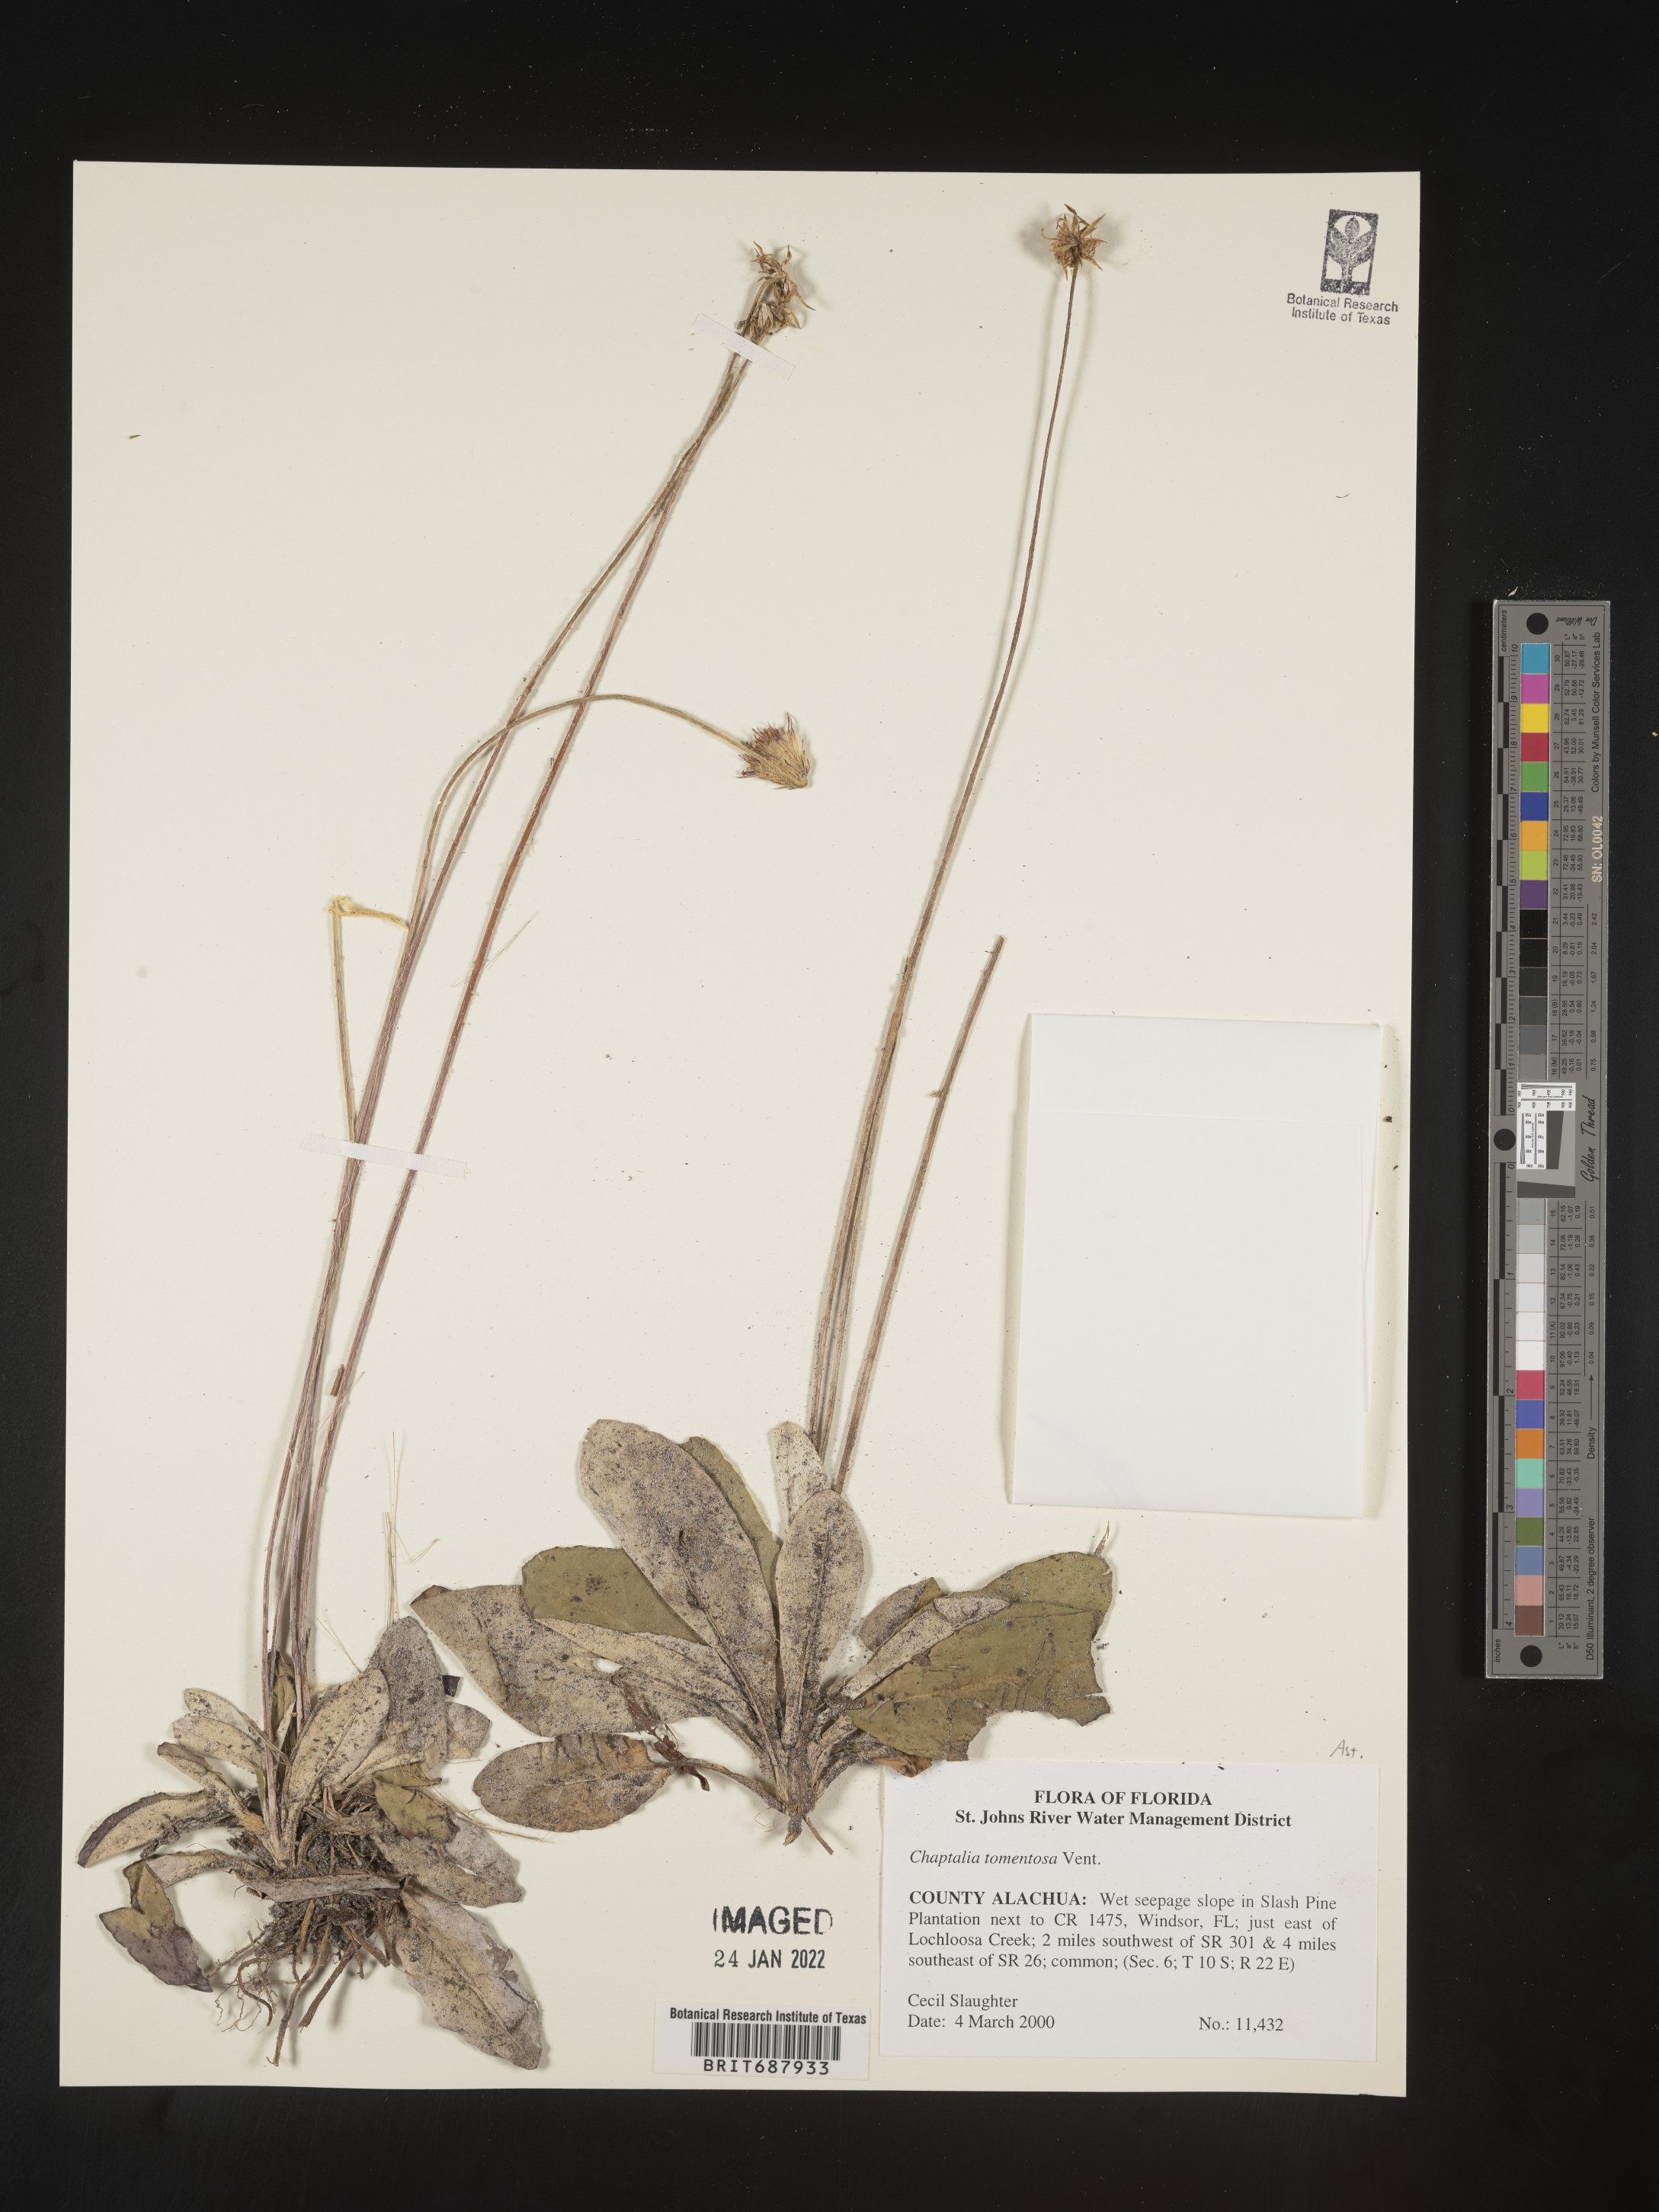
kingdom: Plantae
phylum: Tracheophyta
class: Magnoliopsida
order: Asterales
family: Asteraceae
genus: Chaptalia
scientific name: Chaptalia tomentosa
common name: Woolly sunbonnet
